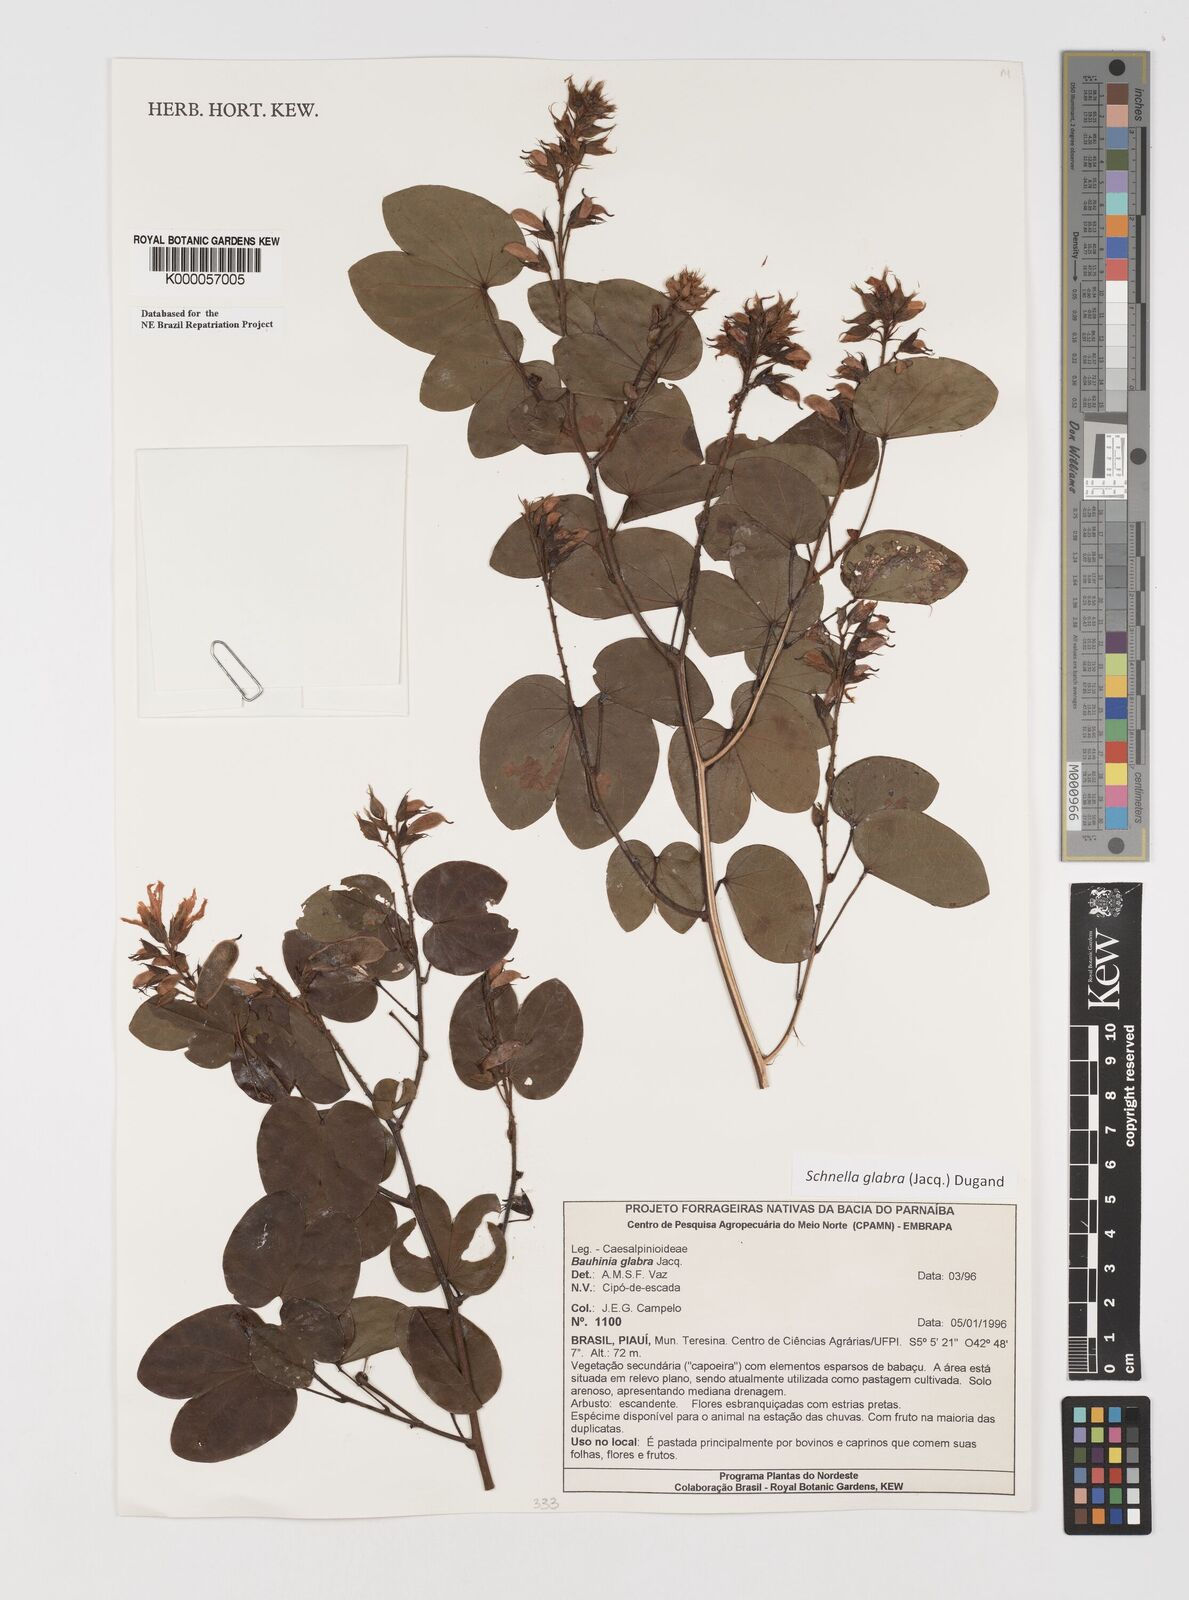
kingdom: Plantae
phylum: Tracheophyta
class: Magnoliopsida
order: Fabales
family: Fabaceae
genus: Schnella
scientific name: Schnella glabra
